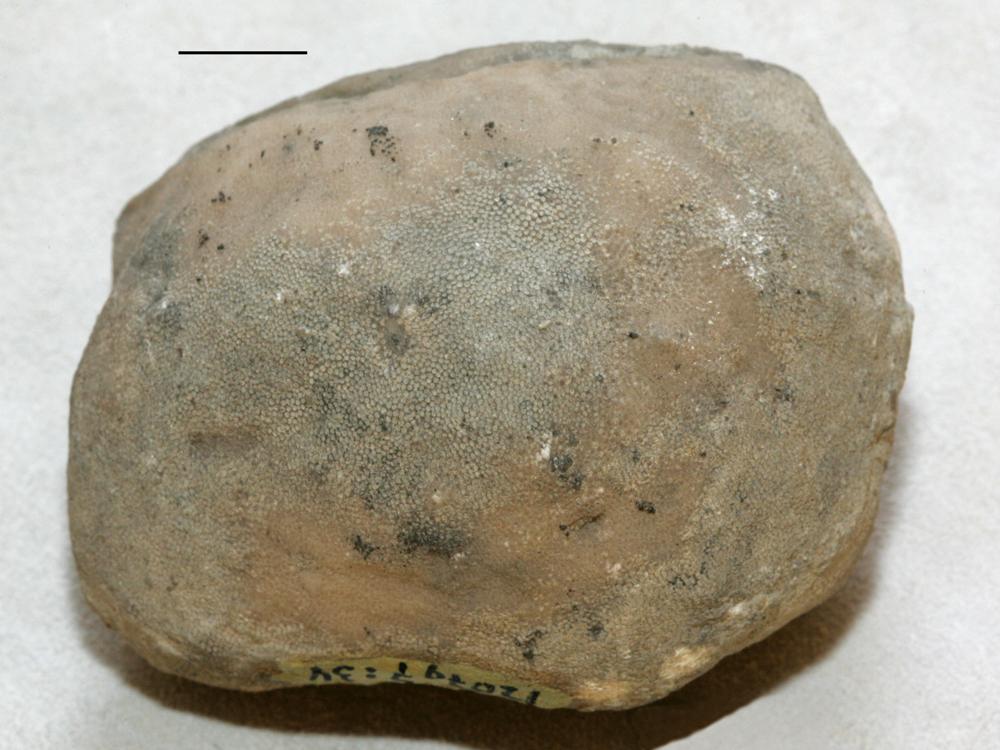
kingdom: Animalia
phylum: Bryozoa
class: Stenolaemata
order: Trepostomatida
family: Halloporidae
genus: Panderpora
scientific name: Panderpora dybowskii
